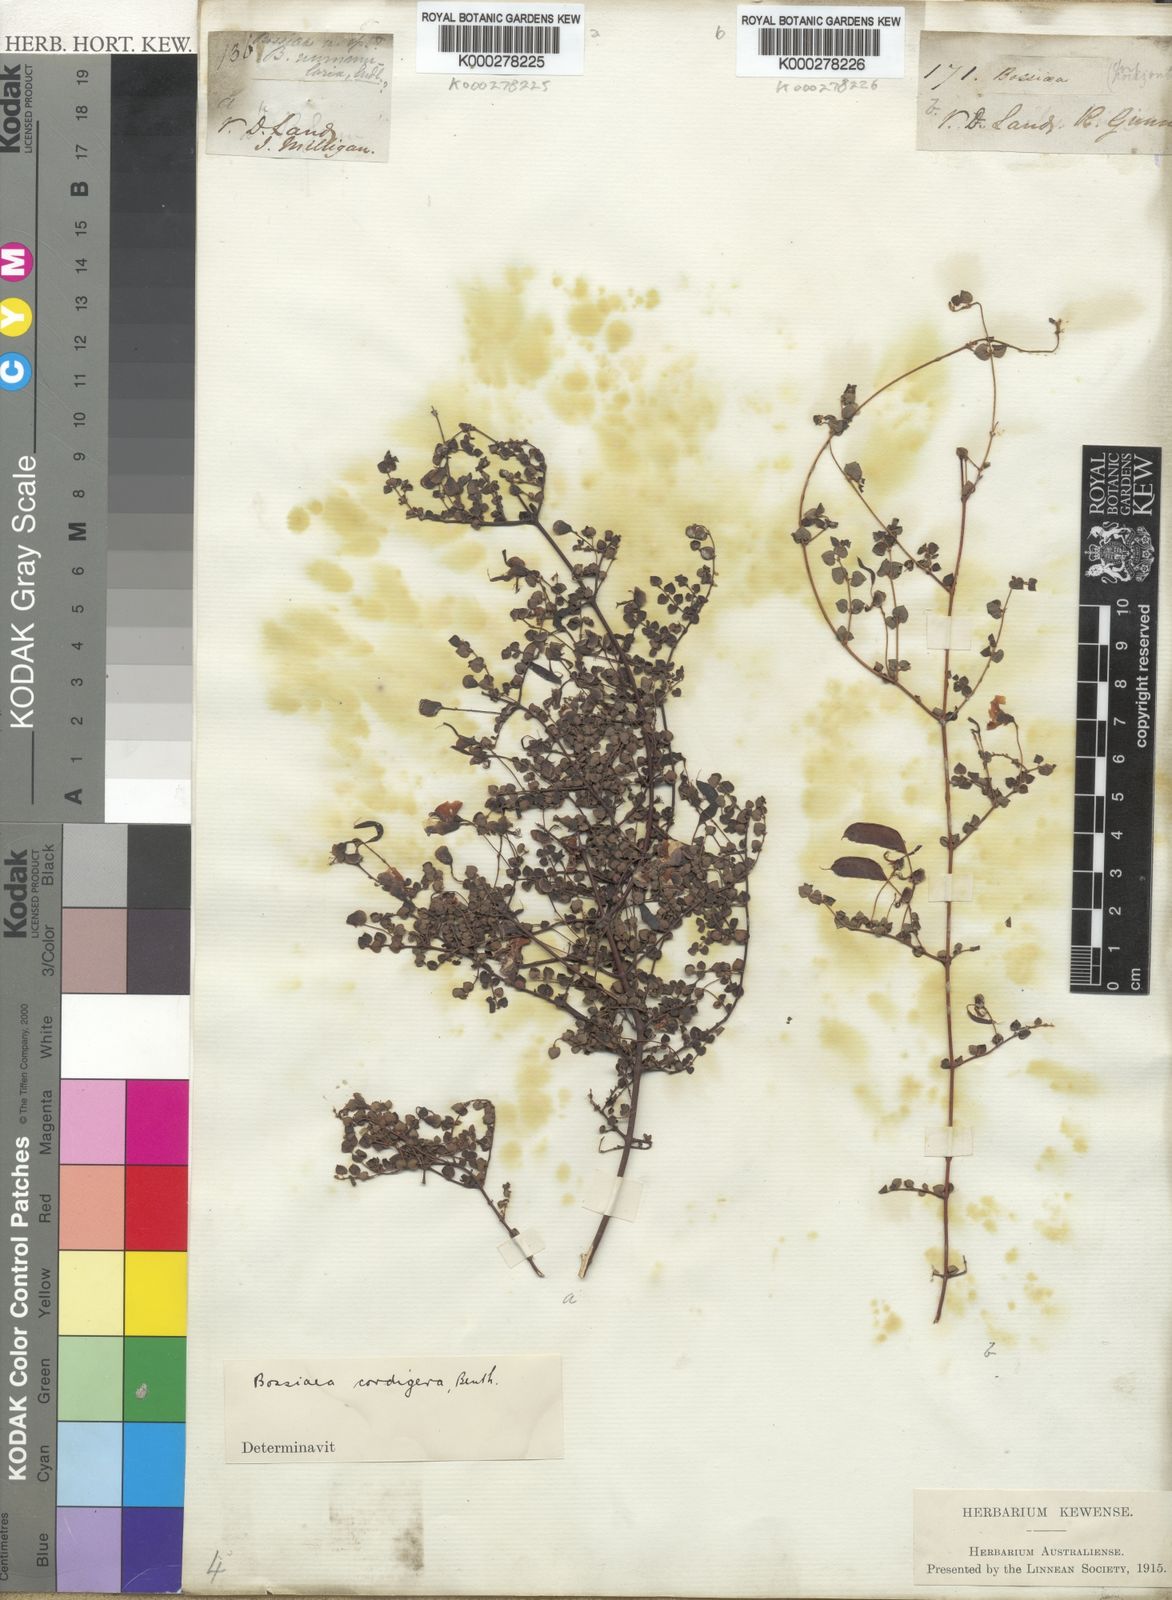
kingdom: Plantae
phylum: Tracheophyta
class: Magnoliopsida
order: Fabales
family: Fabaceae
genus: Bossiaea
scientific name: Bossiaea hendersonii
